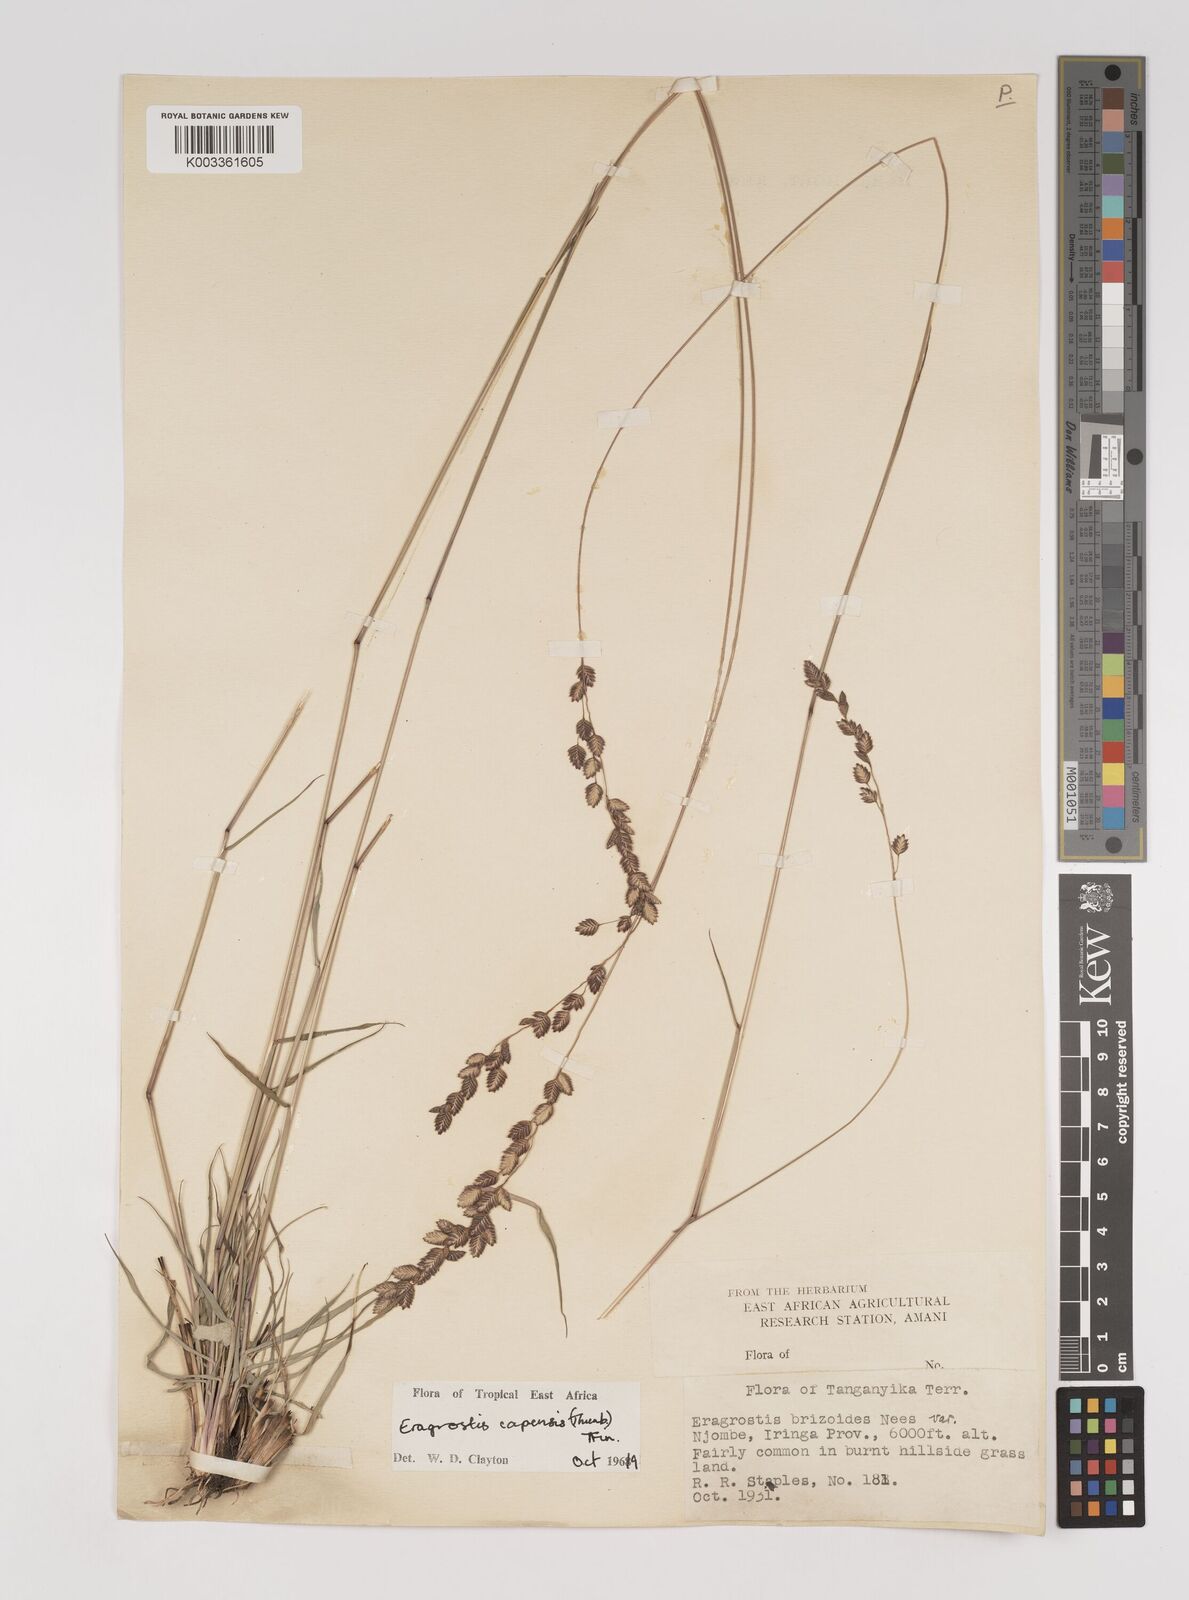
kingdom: Plantae
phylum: Tracheophyta
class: Liliopsida
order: Poales
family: Poaceae
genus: Eragrostis
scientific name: Eragrostis capensis
